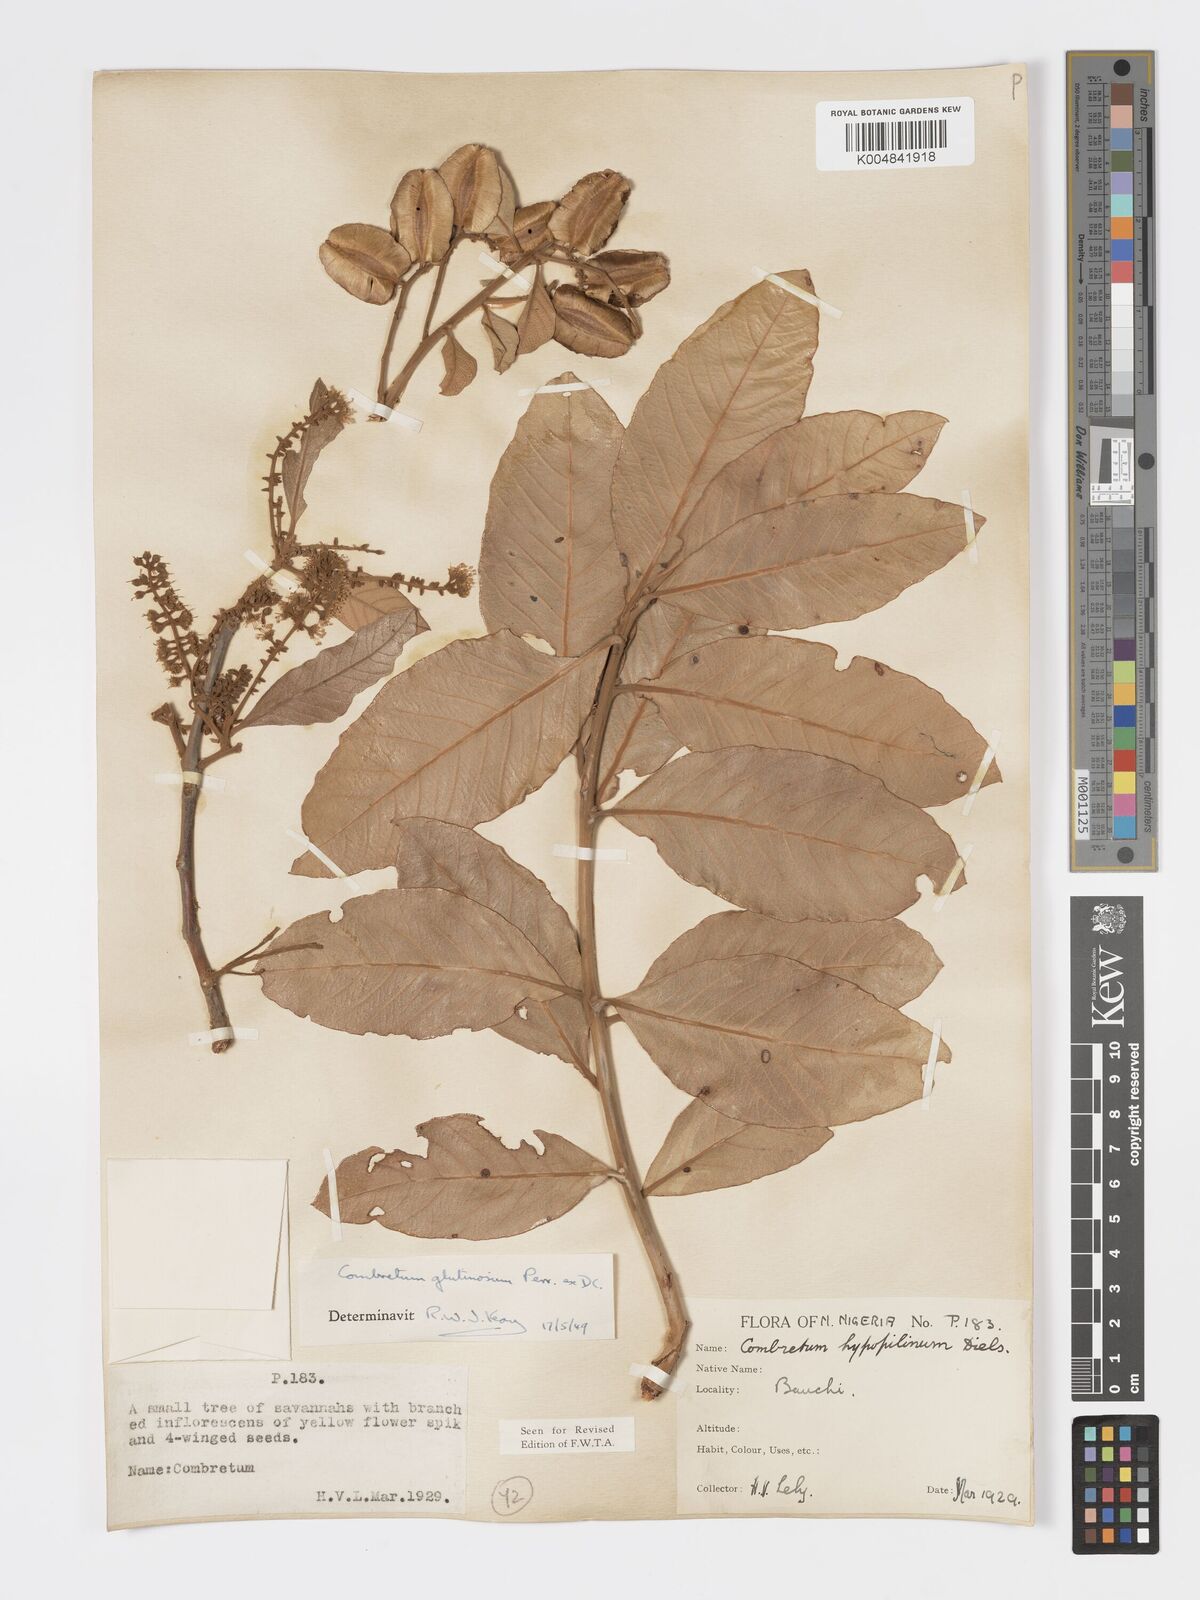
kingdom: Plantae
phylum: Tracheophyta
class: Magnoliopsida
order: Myrtales
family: Combretaceae
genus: Combretum
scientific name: Combretum
